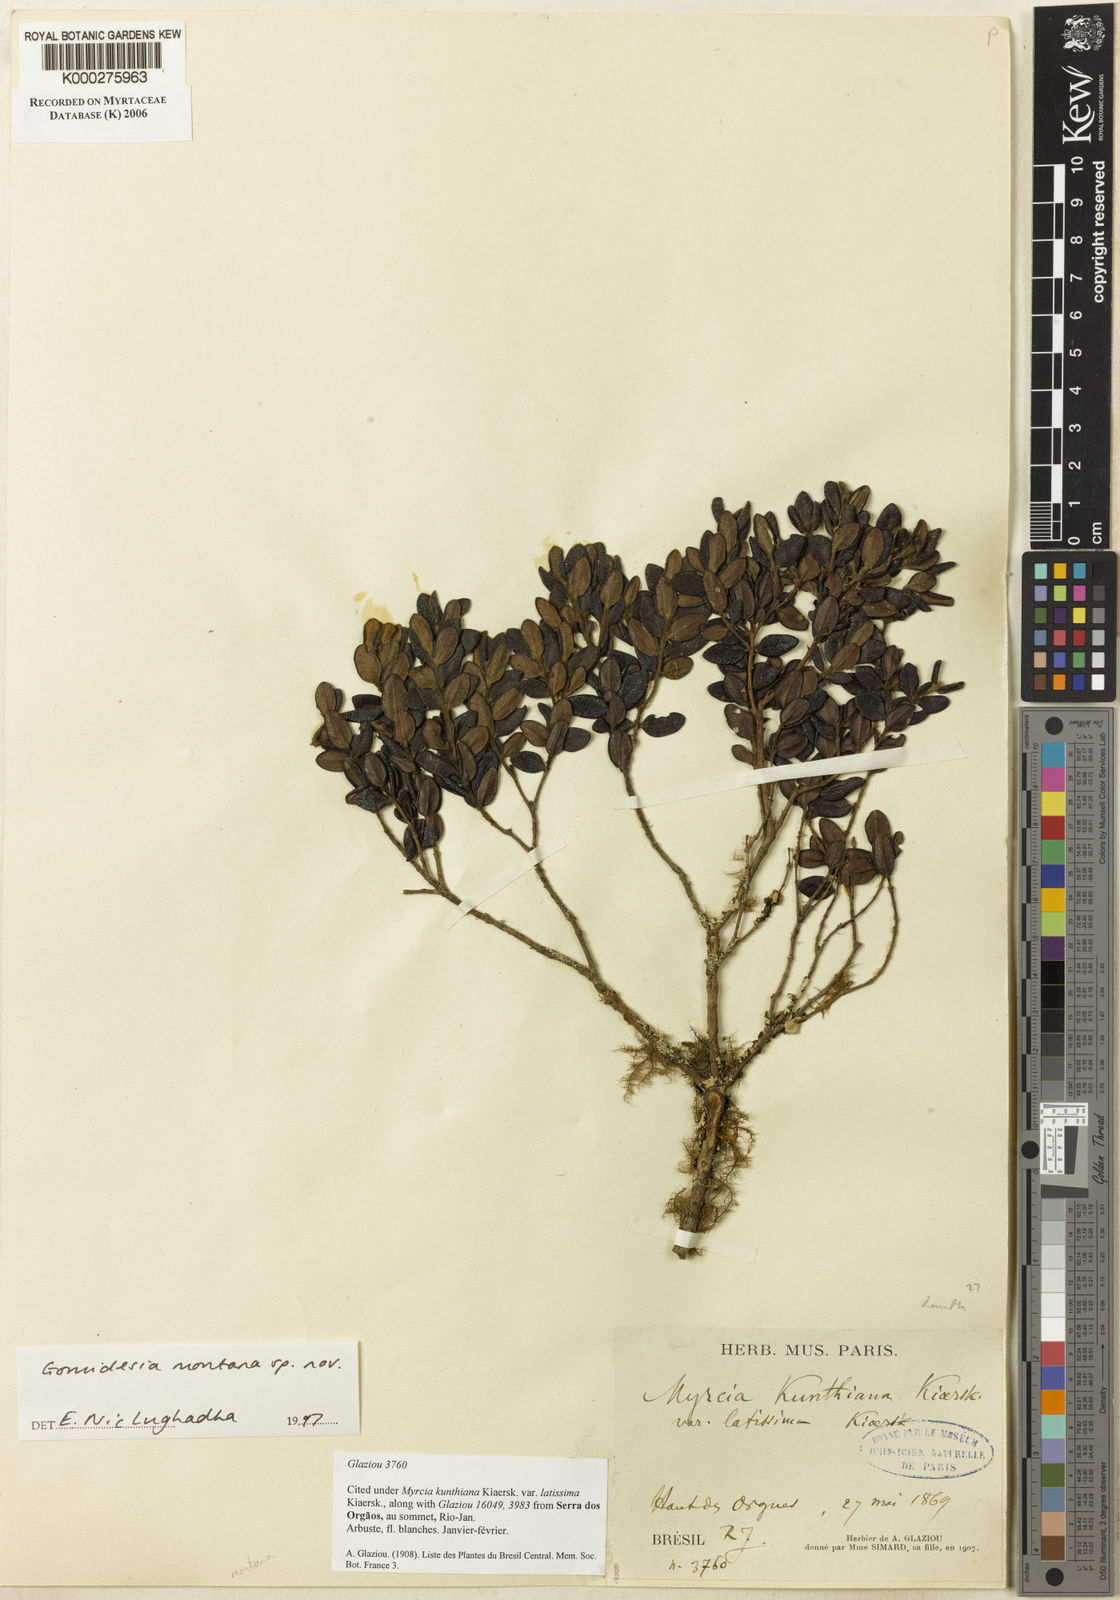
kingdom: Plantae
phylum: Tracheophyta
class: Magnoliopsida
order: Myrtales
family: Myrtaceae
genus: Myrcia
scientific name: Myrcia montana
